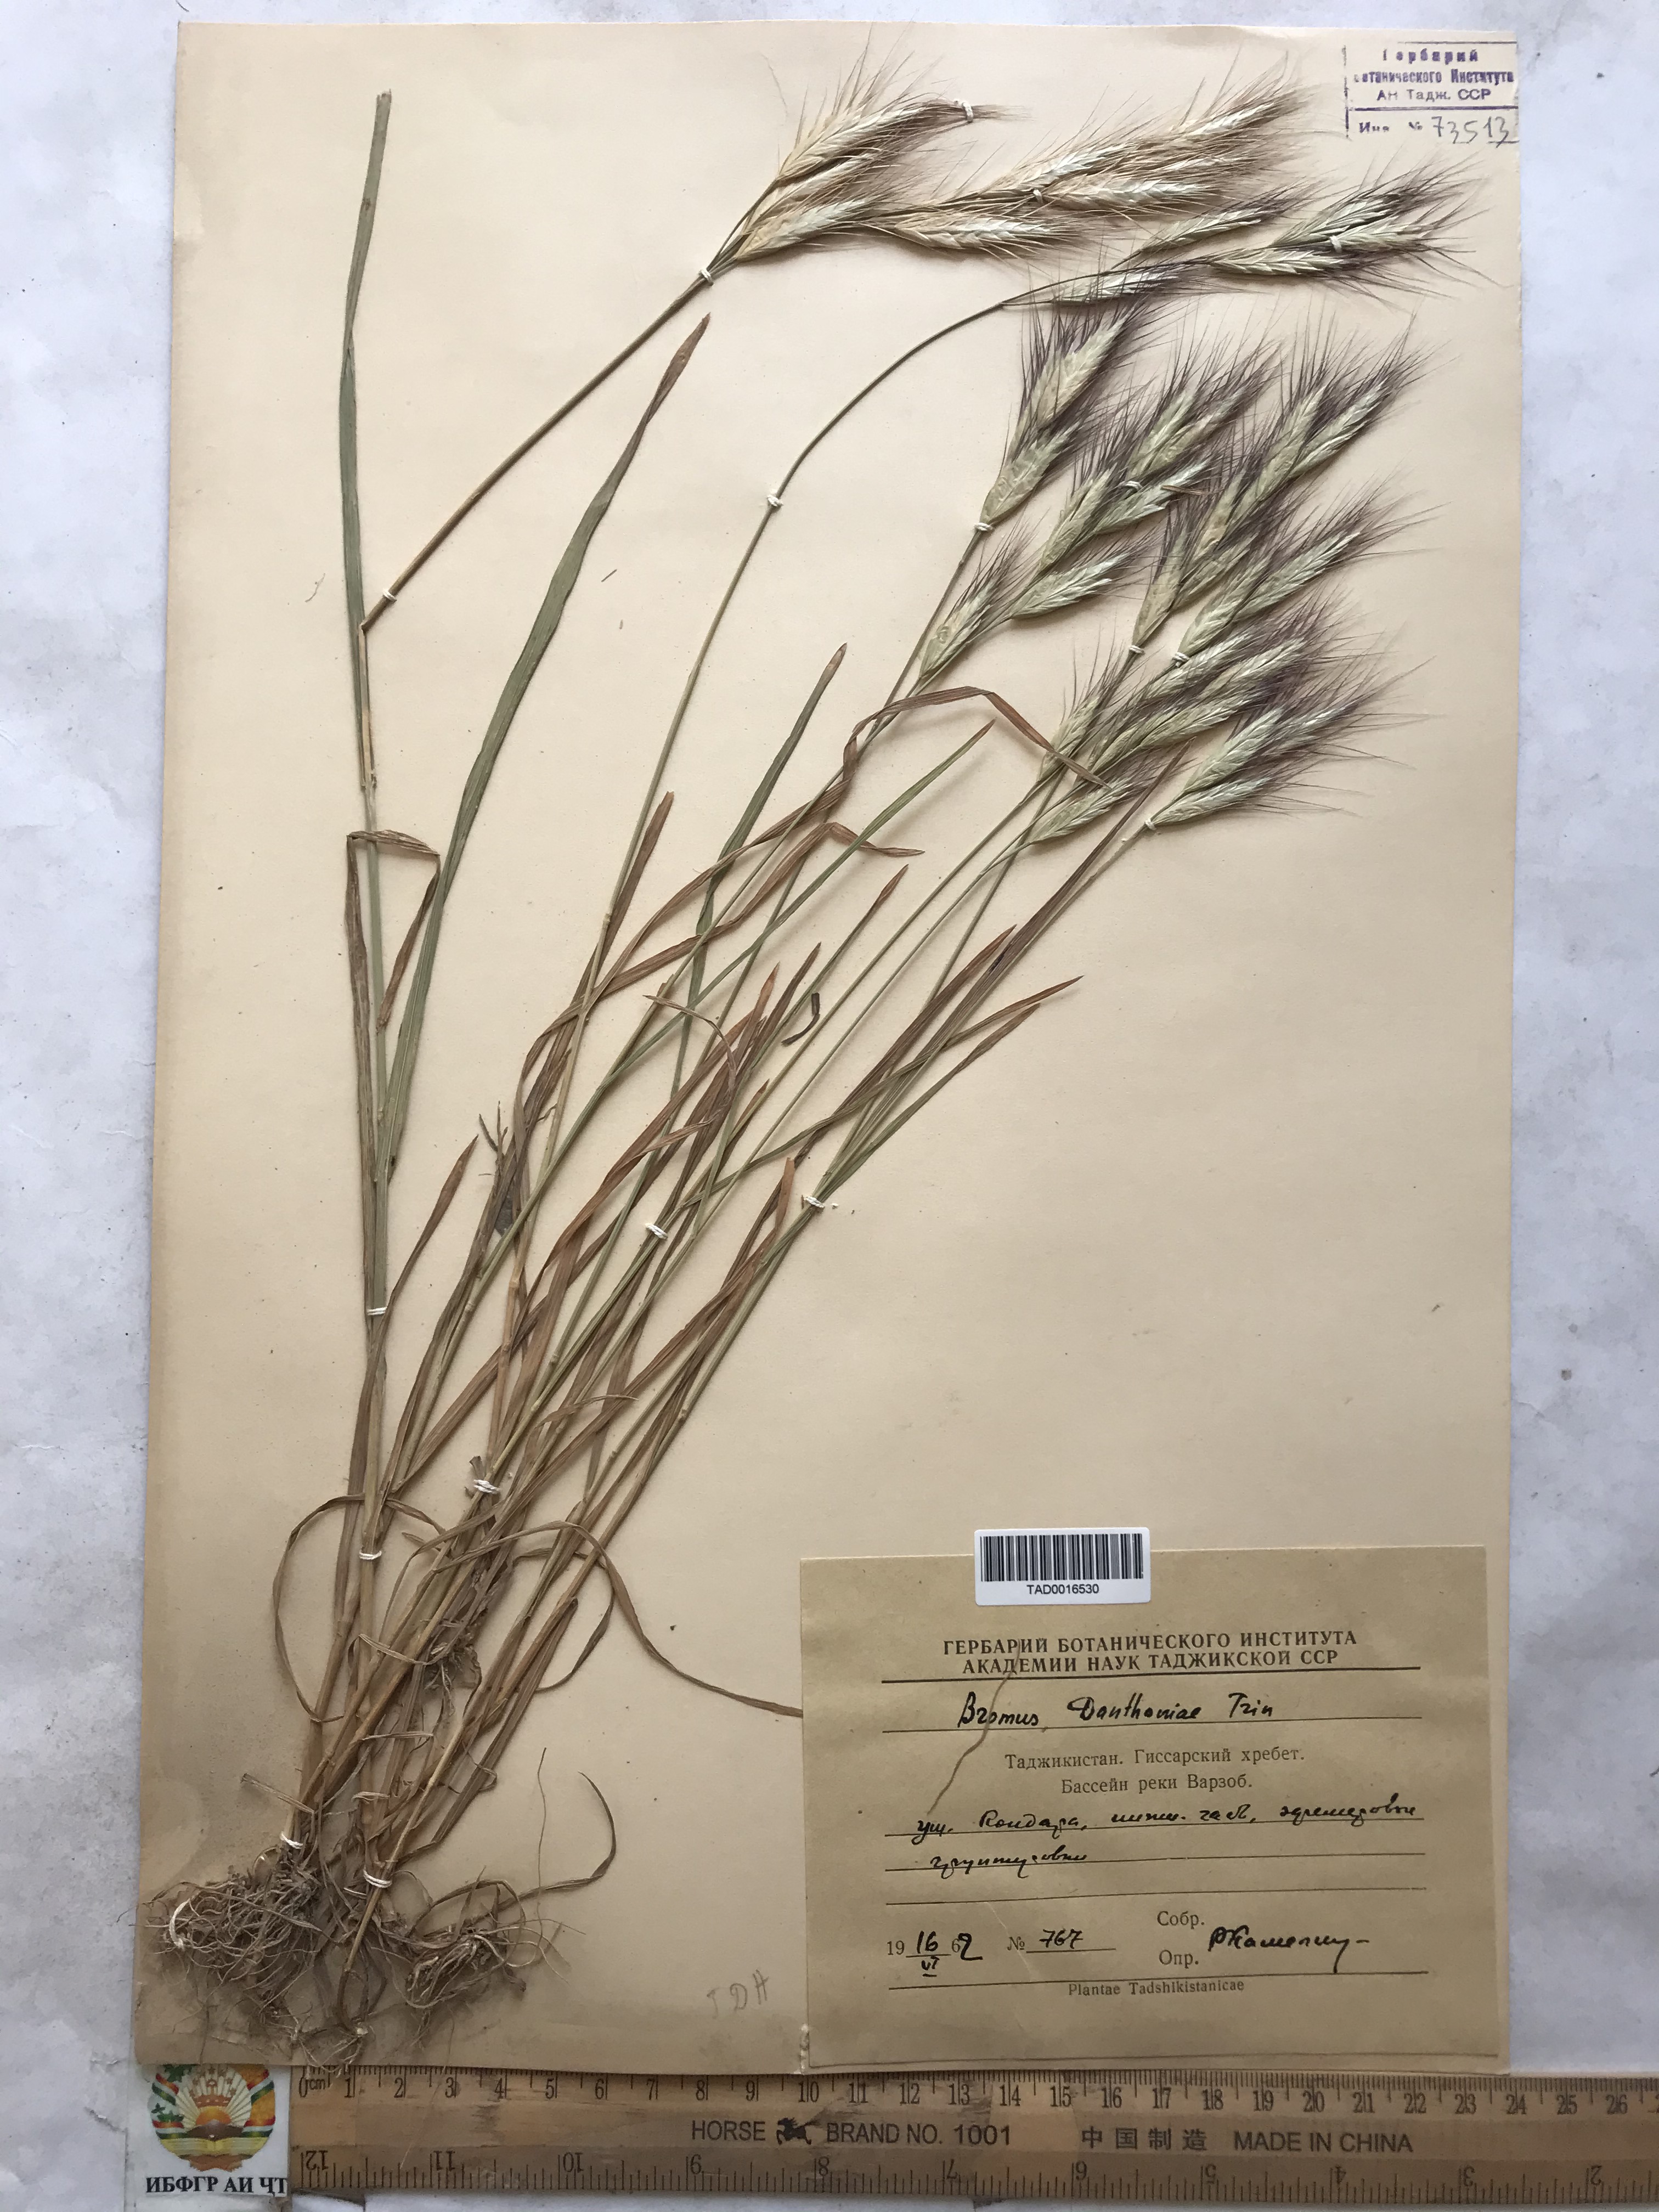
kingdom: Plantae
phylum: Tracheophyta
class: Liliopsida
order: Poales
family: Poaceae
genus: Bromus
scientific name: Bromus danthoniae
